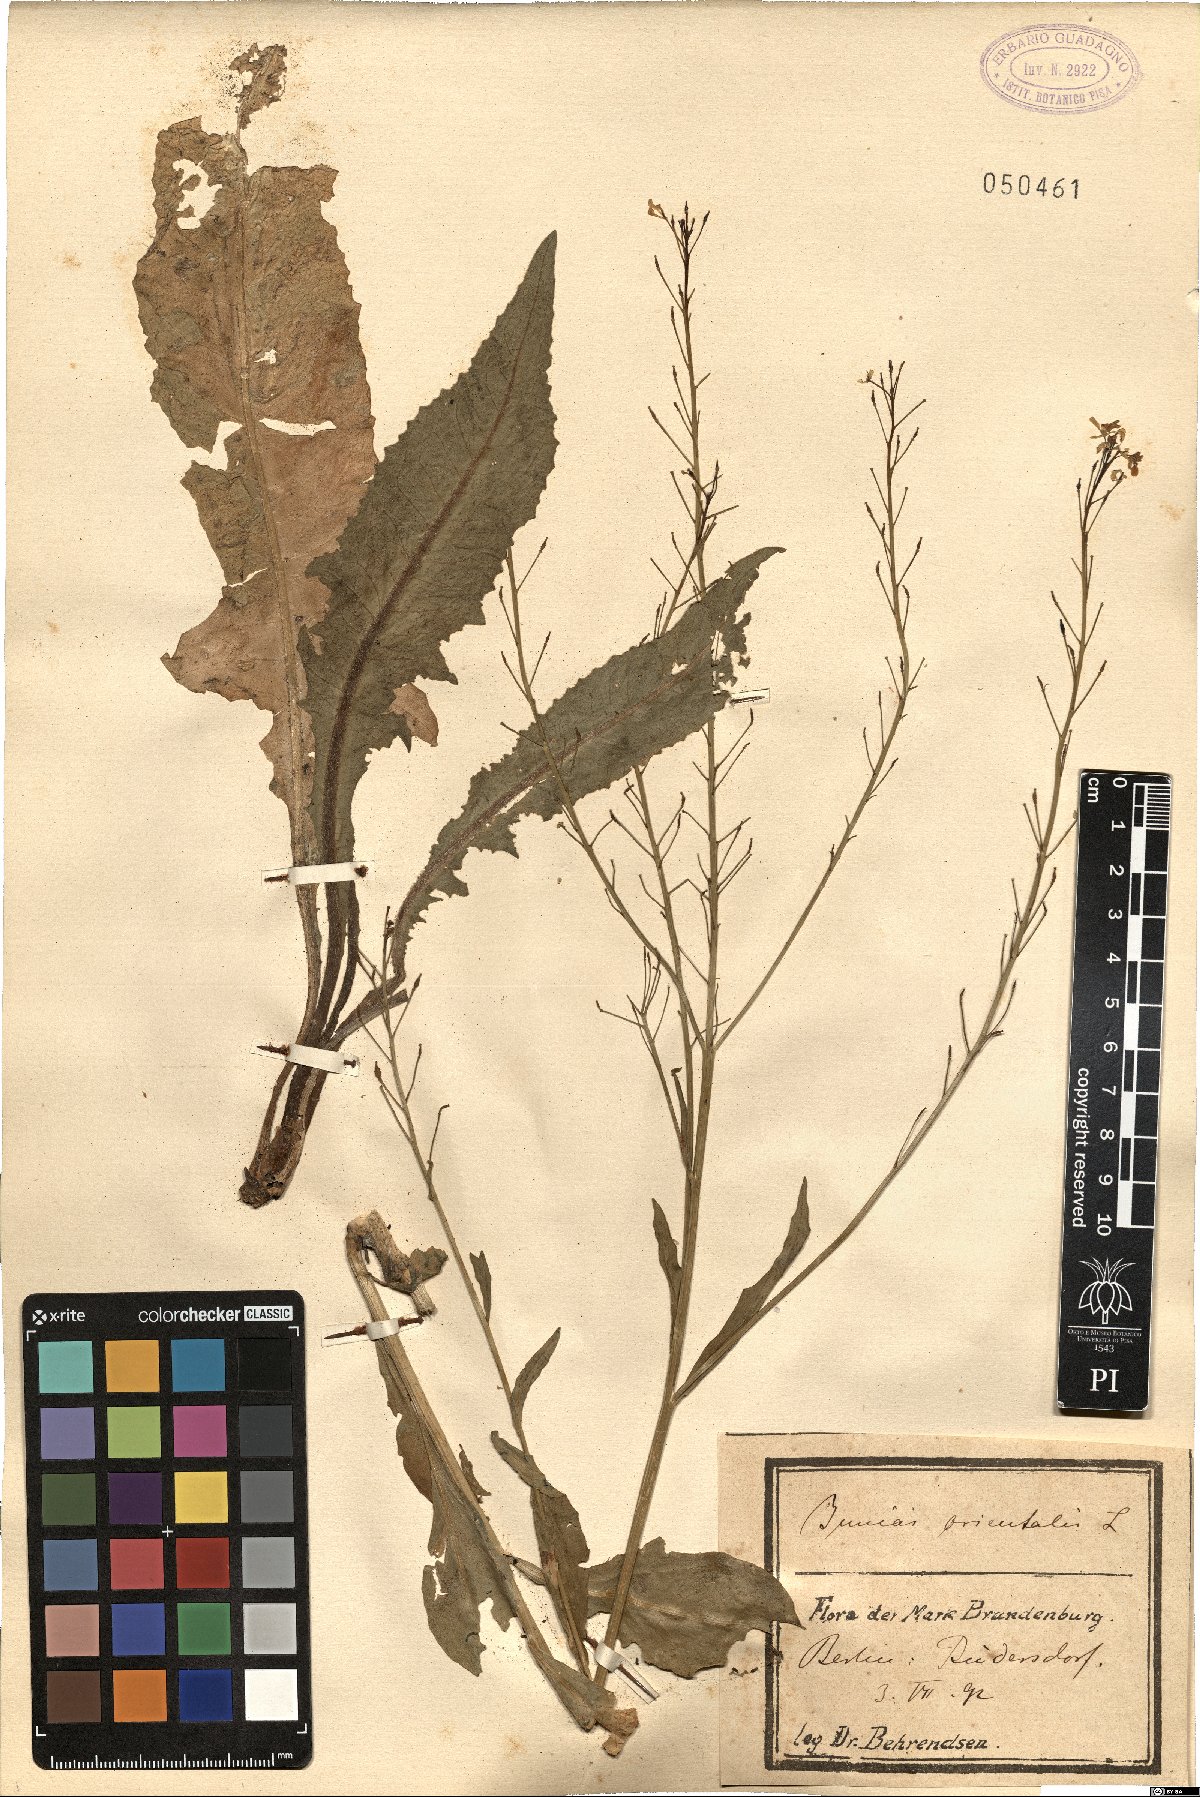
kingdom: Plantae
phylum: Tracheophyta
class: Magnoliopsida
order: Brassicales
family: Brassicaceae
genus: Bunias
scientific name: Bunias orientalis
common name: Warty-cabbage
